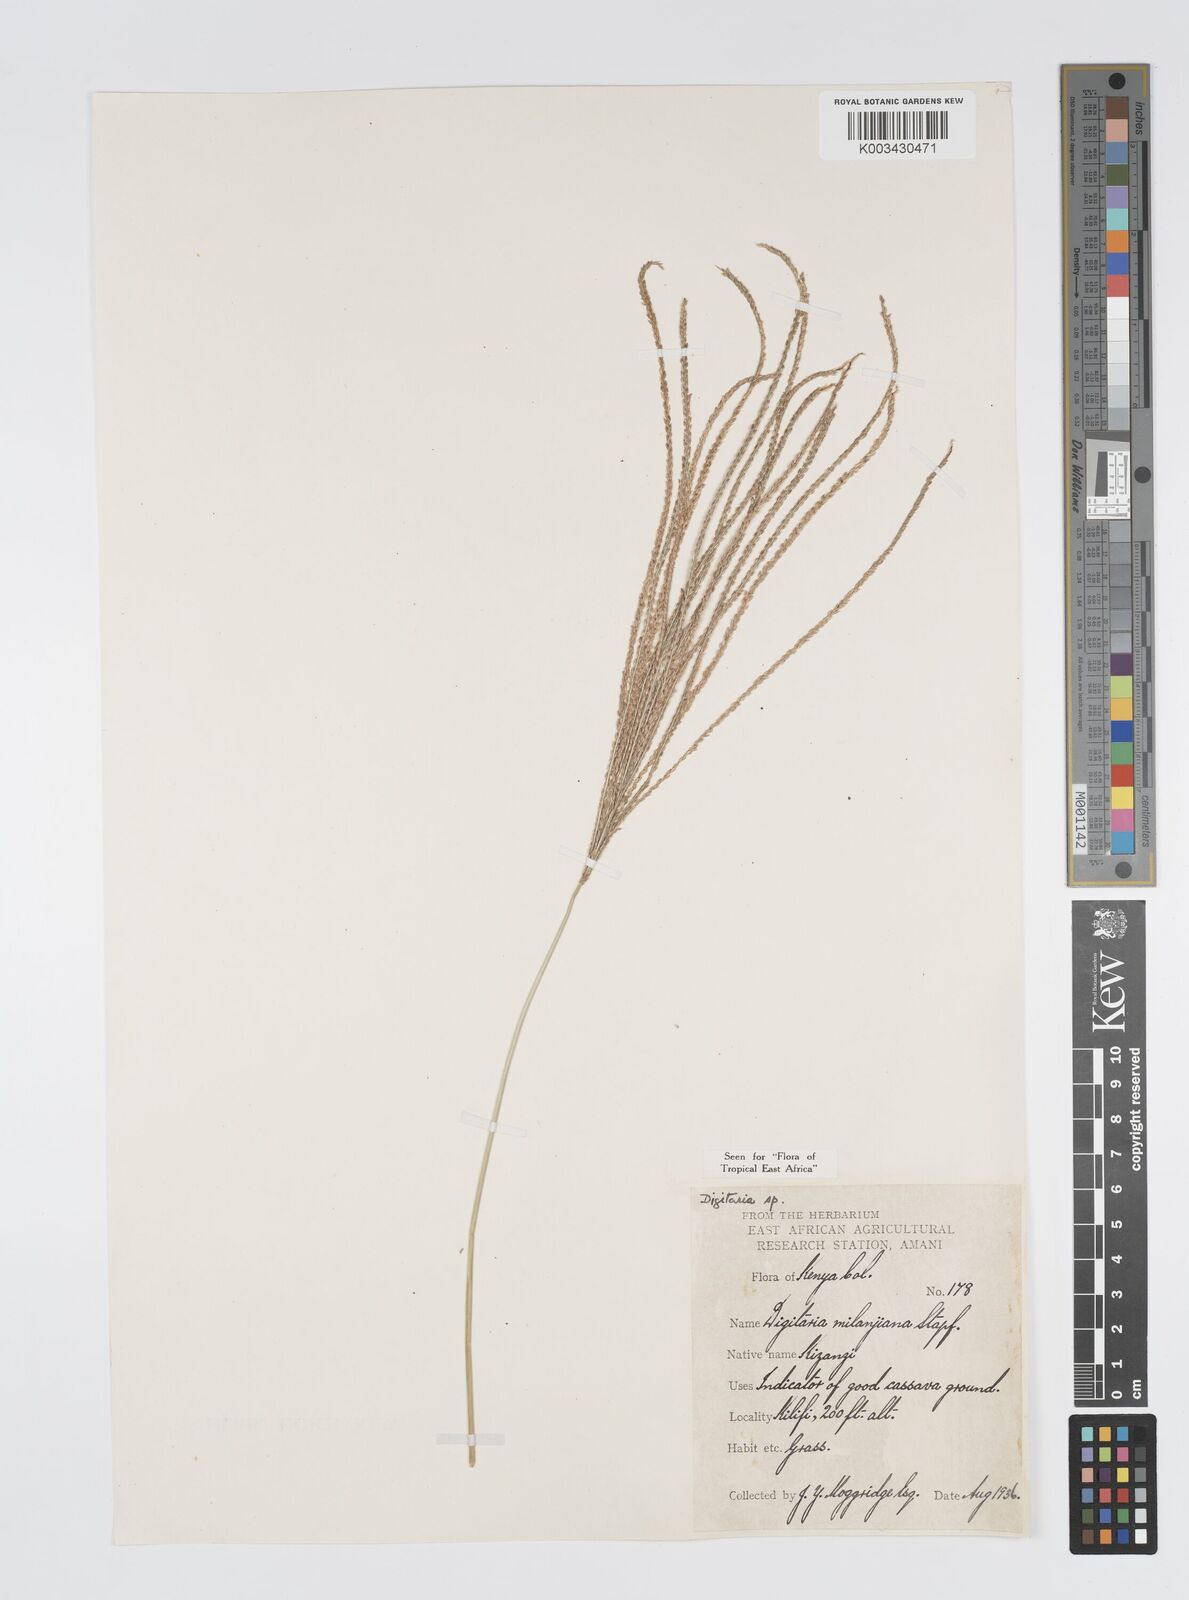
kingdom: Plantae
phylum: Tracheophyta
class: Liliopsida
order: Poales
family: Poaceae
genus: Digitaria
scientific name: Digitaria milanjiana
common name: Madagascar crabgrass
